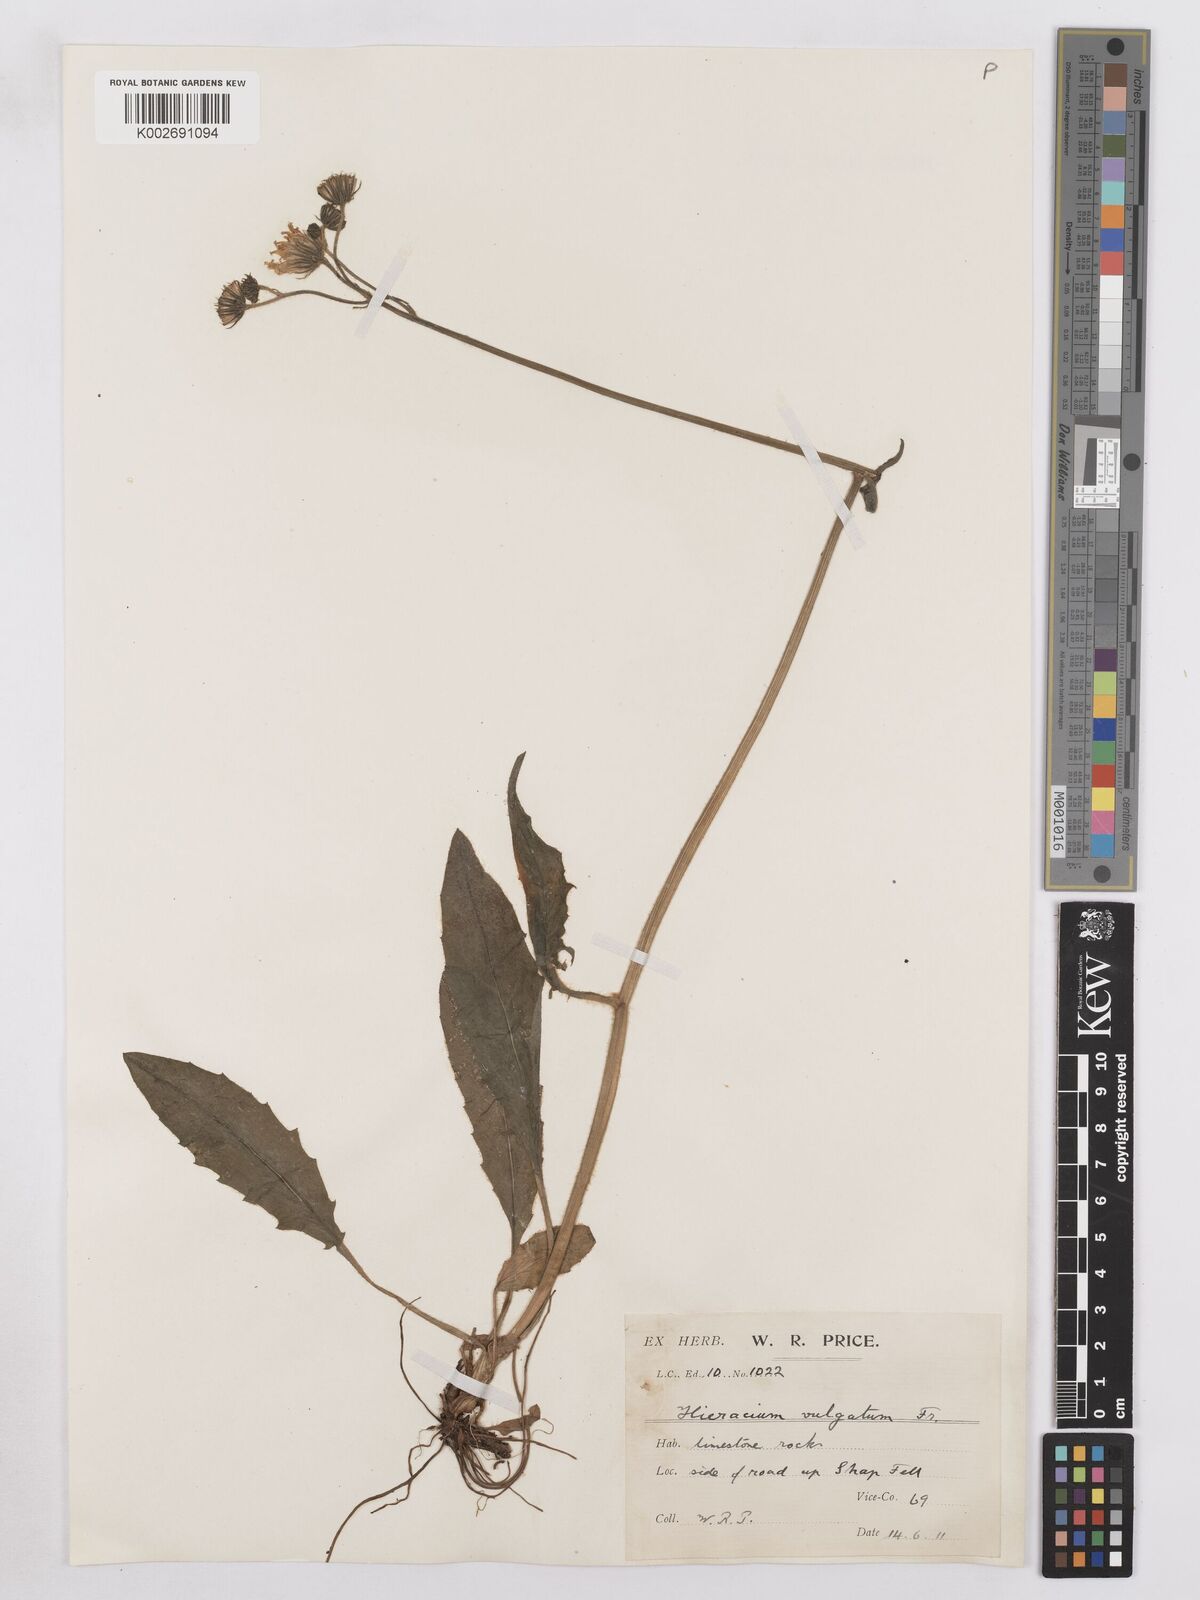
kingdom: Plantae
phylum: Tracheophyta
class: Magnoliopsida
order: Asterales
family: Asteraceae
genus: Hieracium
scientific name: Hieracium lachenalii
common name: Common hawkweed
